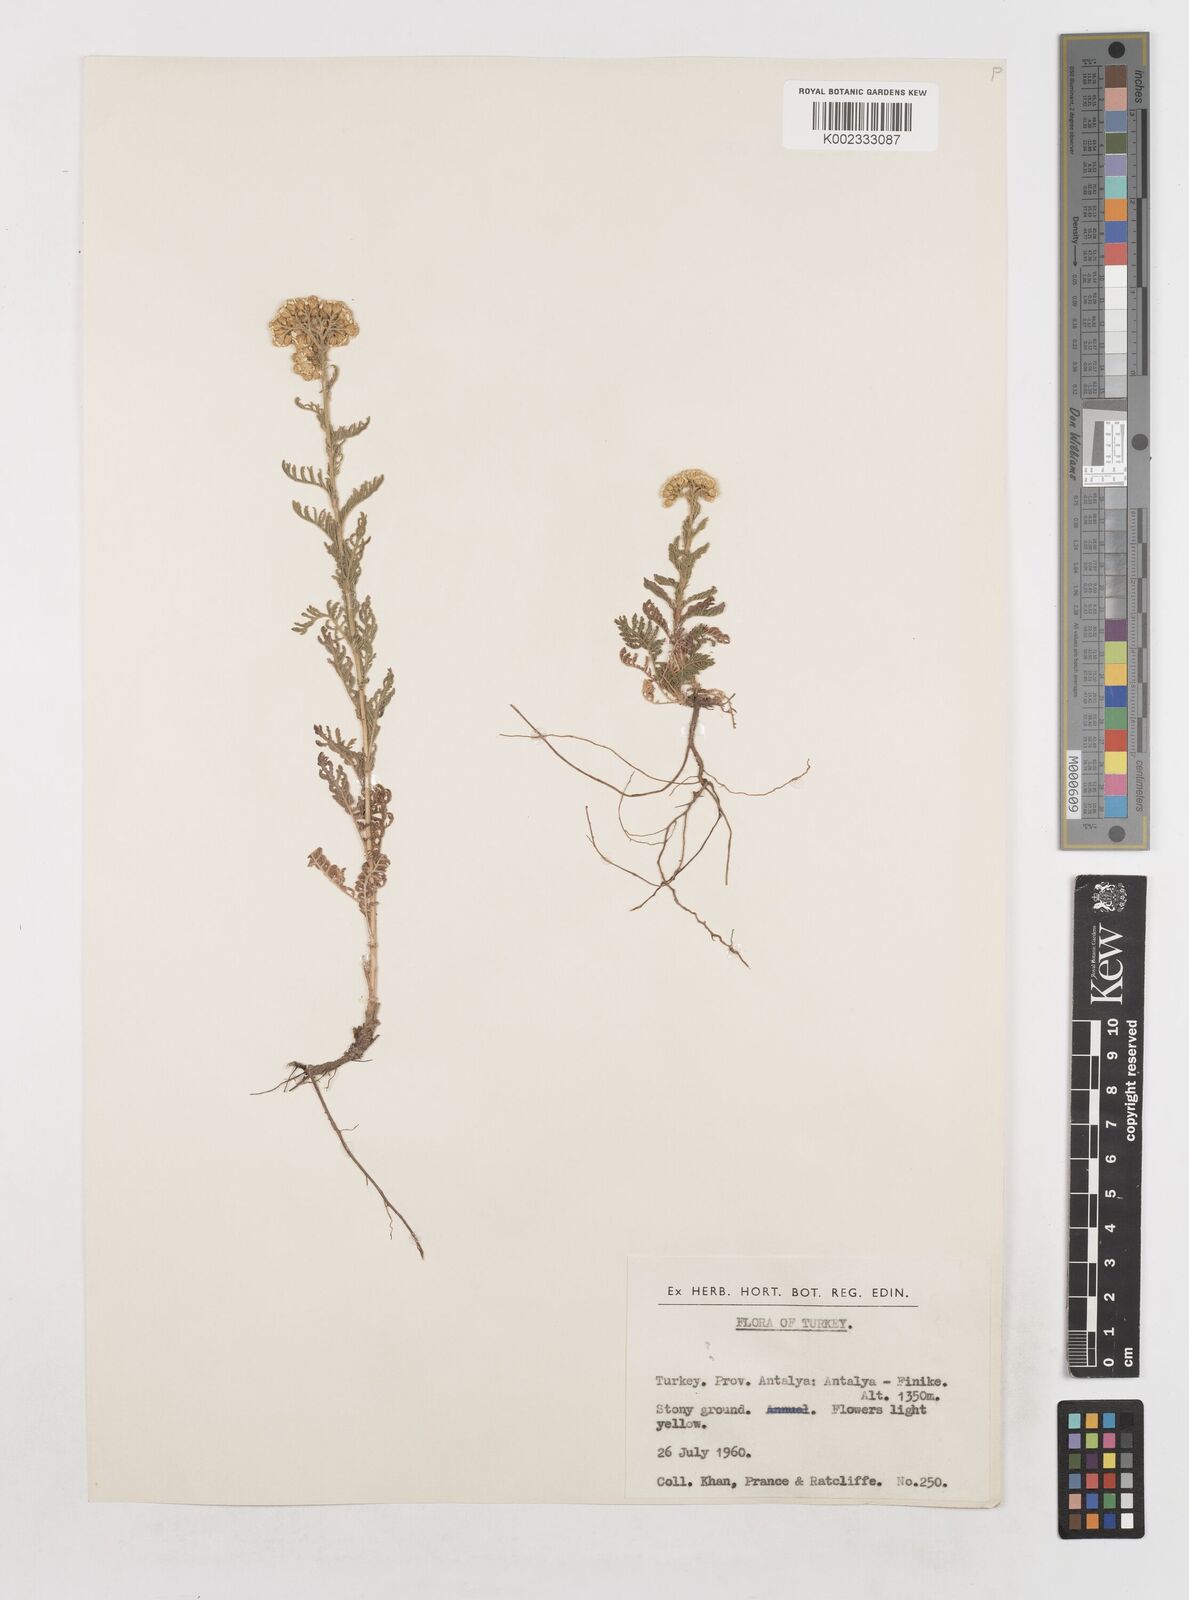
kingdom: Plantae
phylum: Tracheophyta
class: Magnoliopsida
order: Asterales
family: Asteraceae
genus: Achillea
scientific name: Achillea
